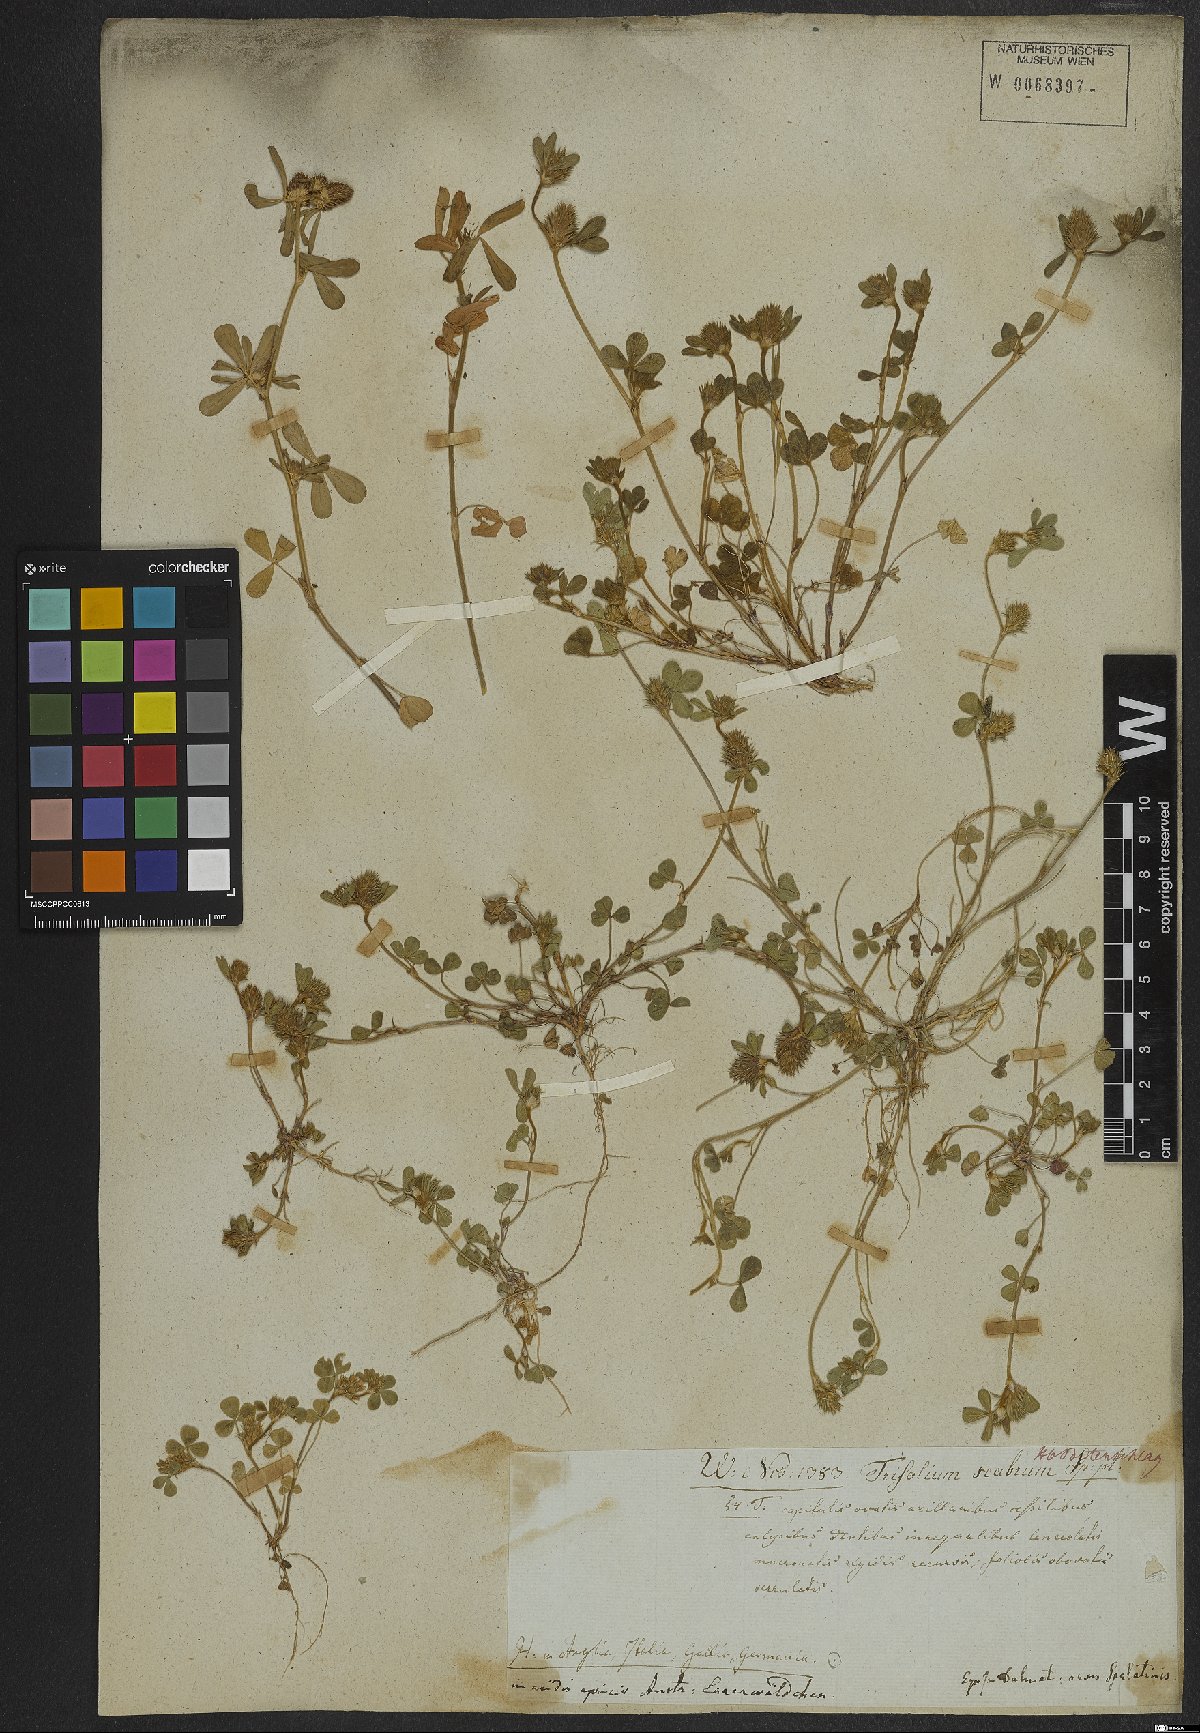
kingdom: Plantae
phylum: Tracheophyta
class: Magnoliopsida
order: Fabales
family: Fabaceae
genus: Trifolium
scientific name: Trifolium striatum
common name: Knotted clover
